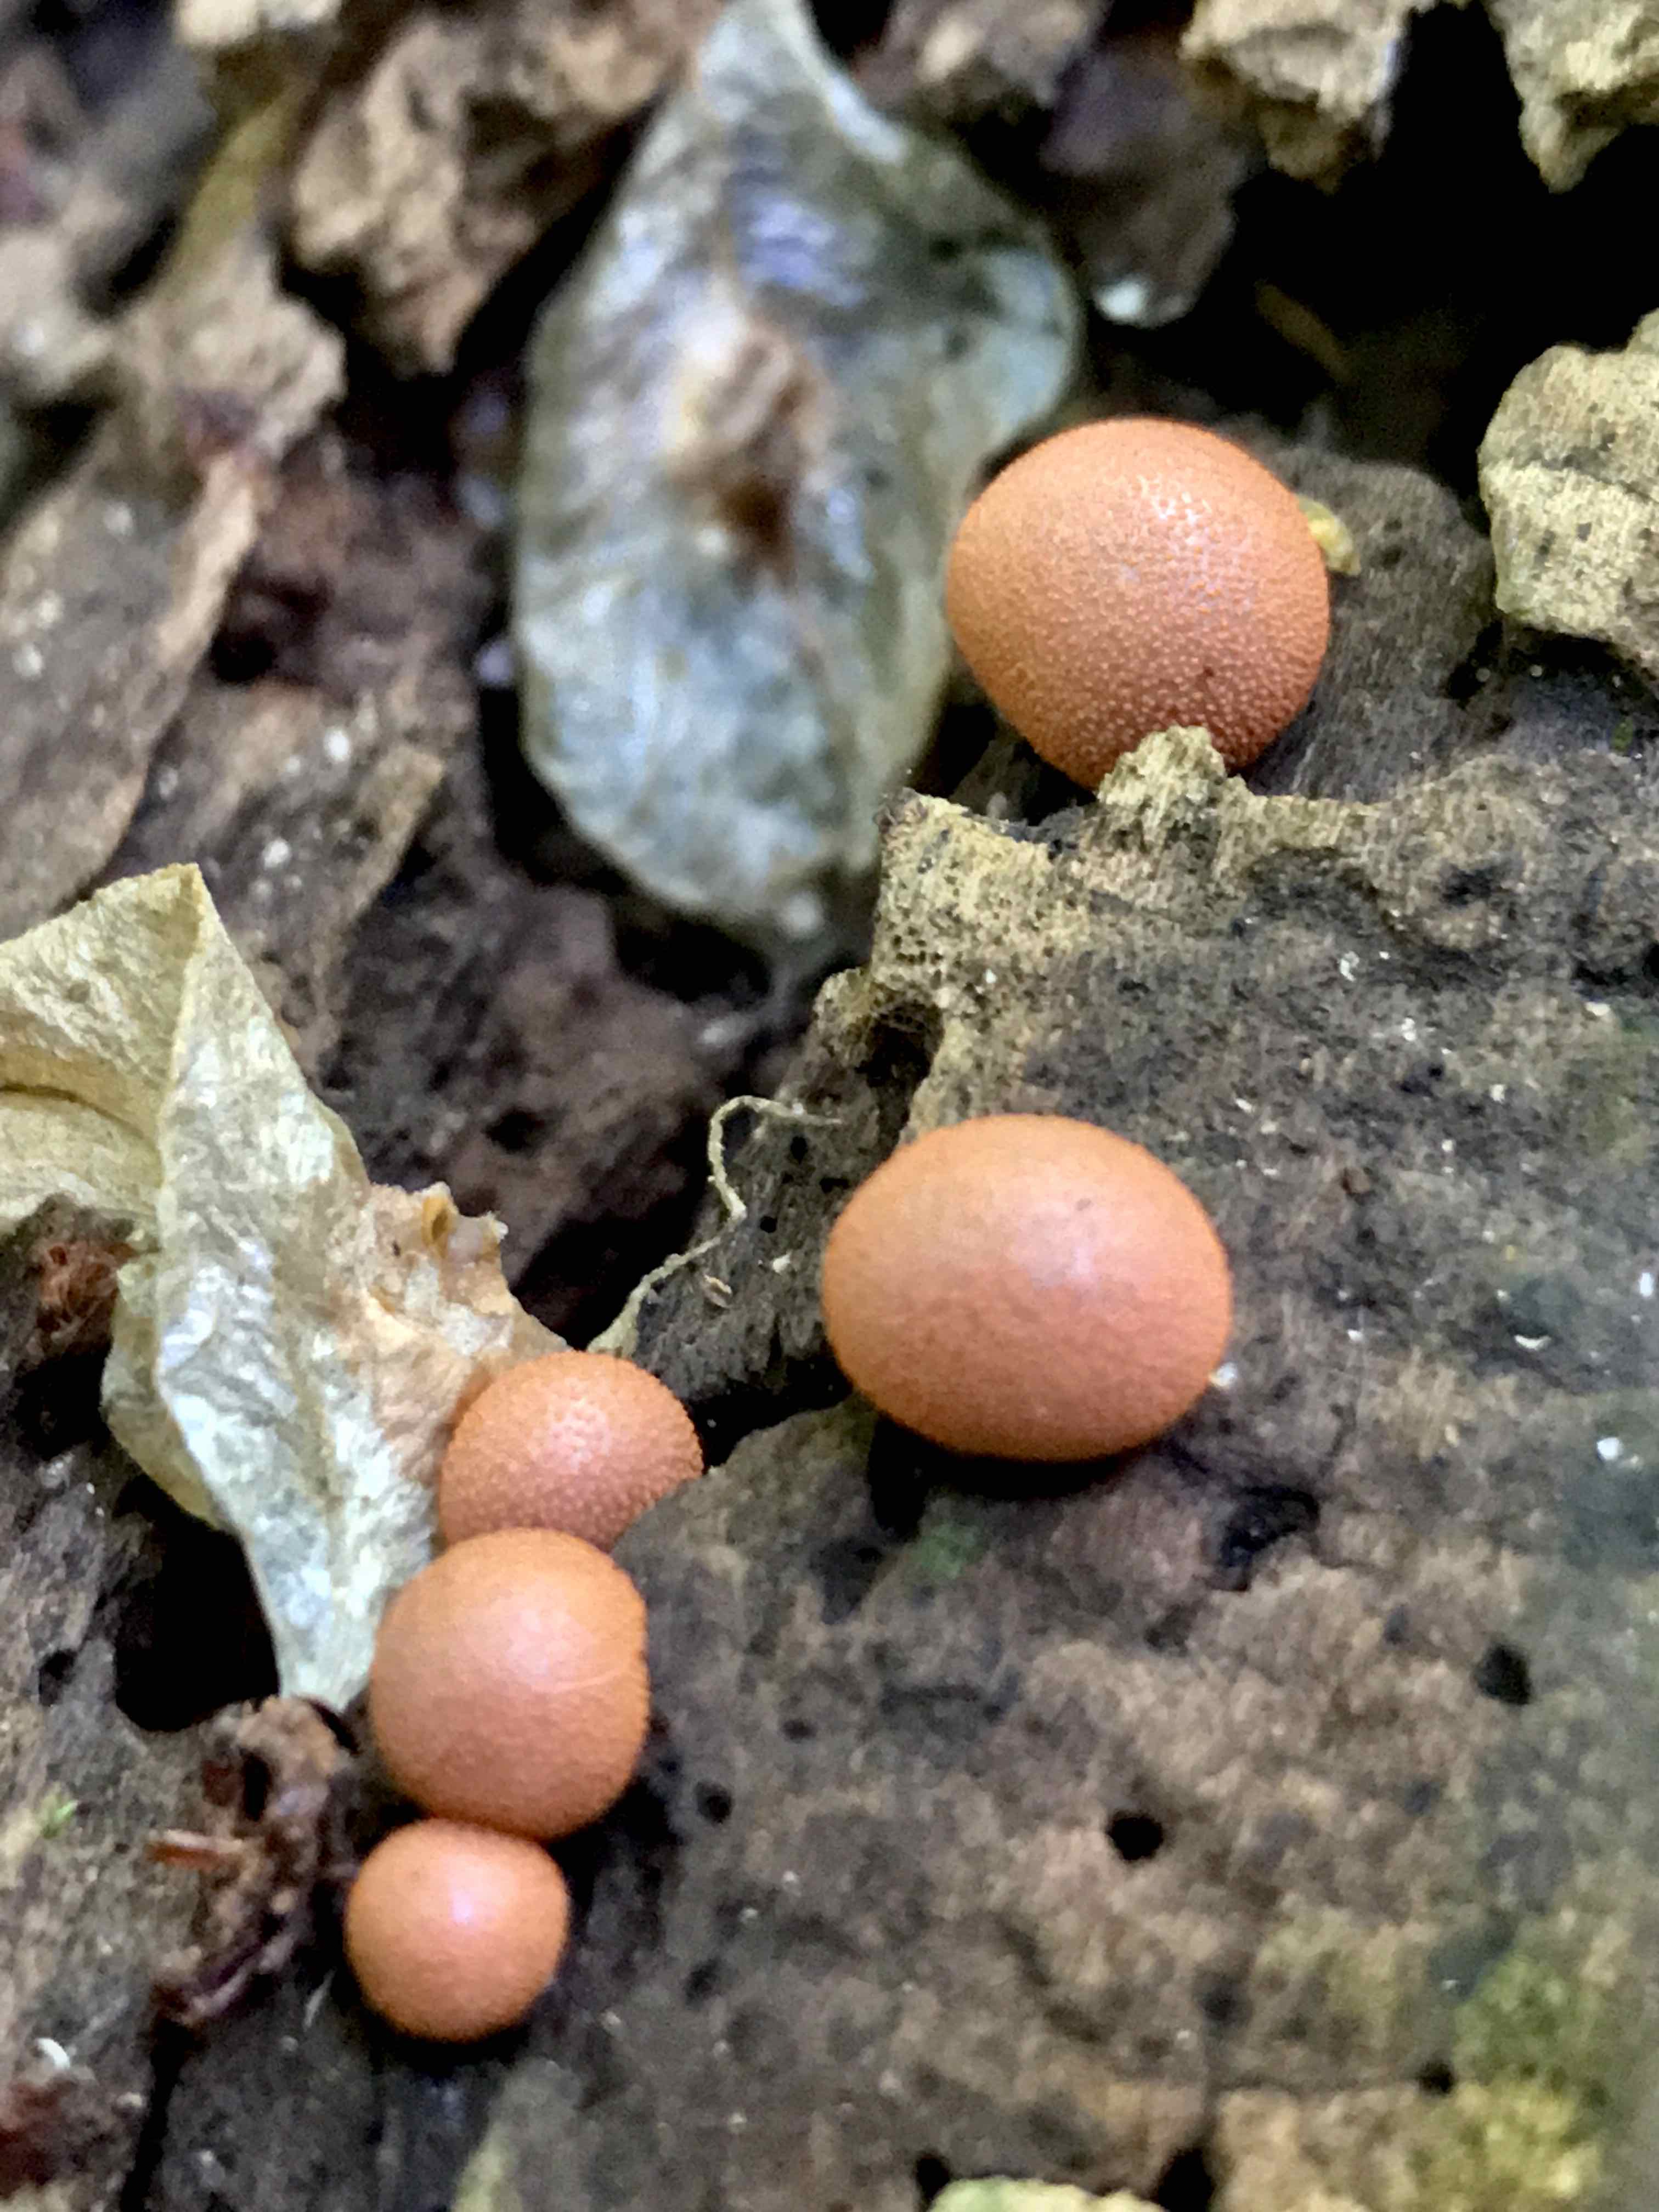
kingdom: Protozoa
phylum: Mycetozoa
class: Myxomycetes
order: Cribrariales
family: Tubiferaceae
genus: Lycogala
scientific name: Lycogala epidendrum
